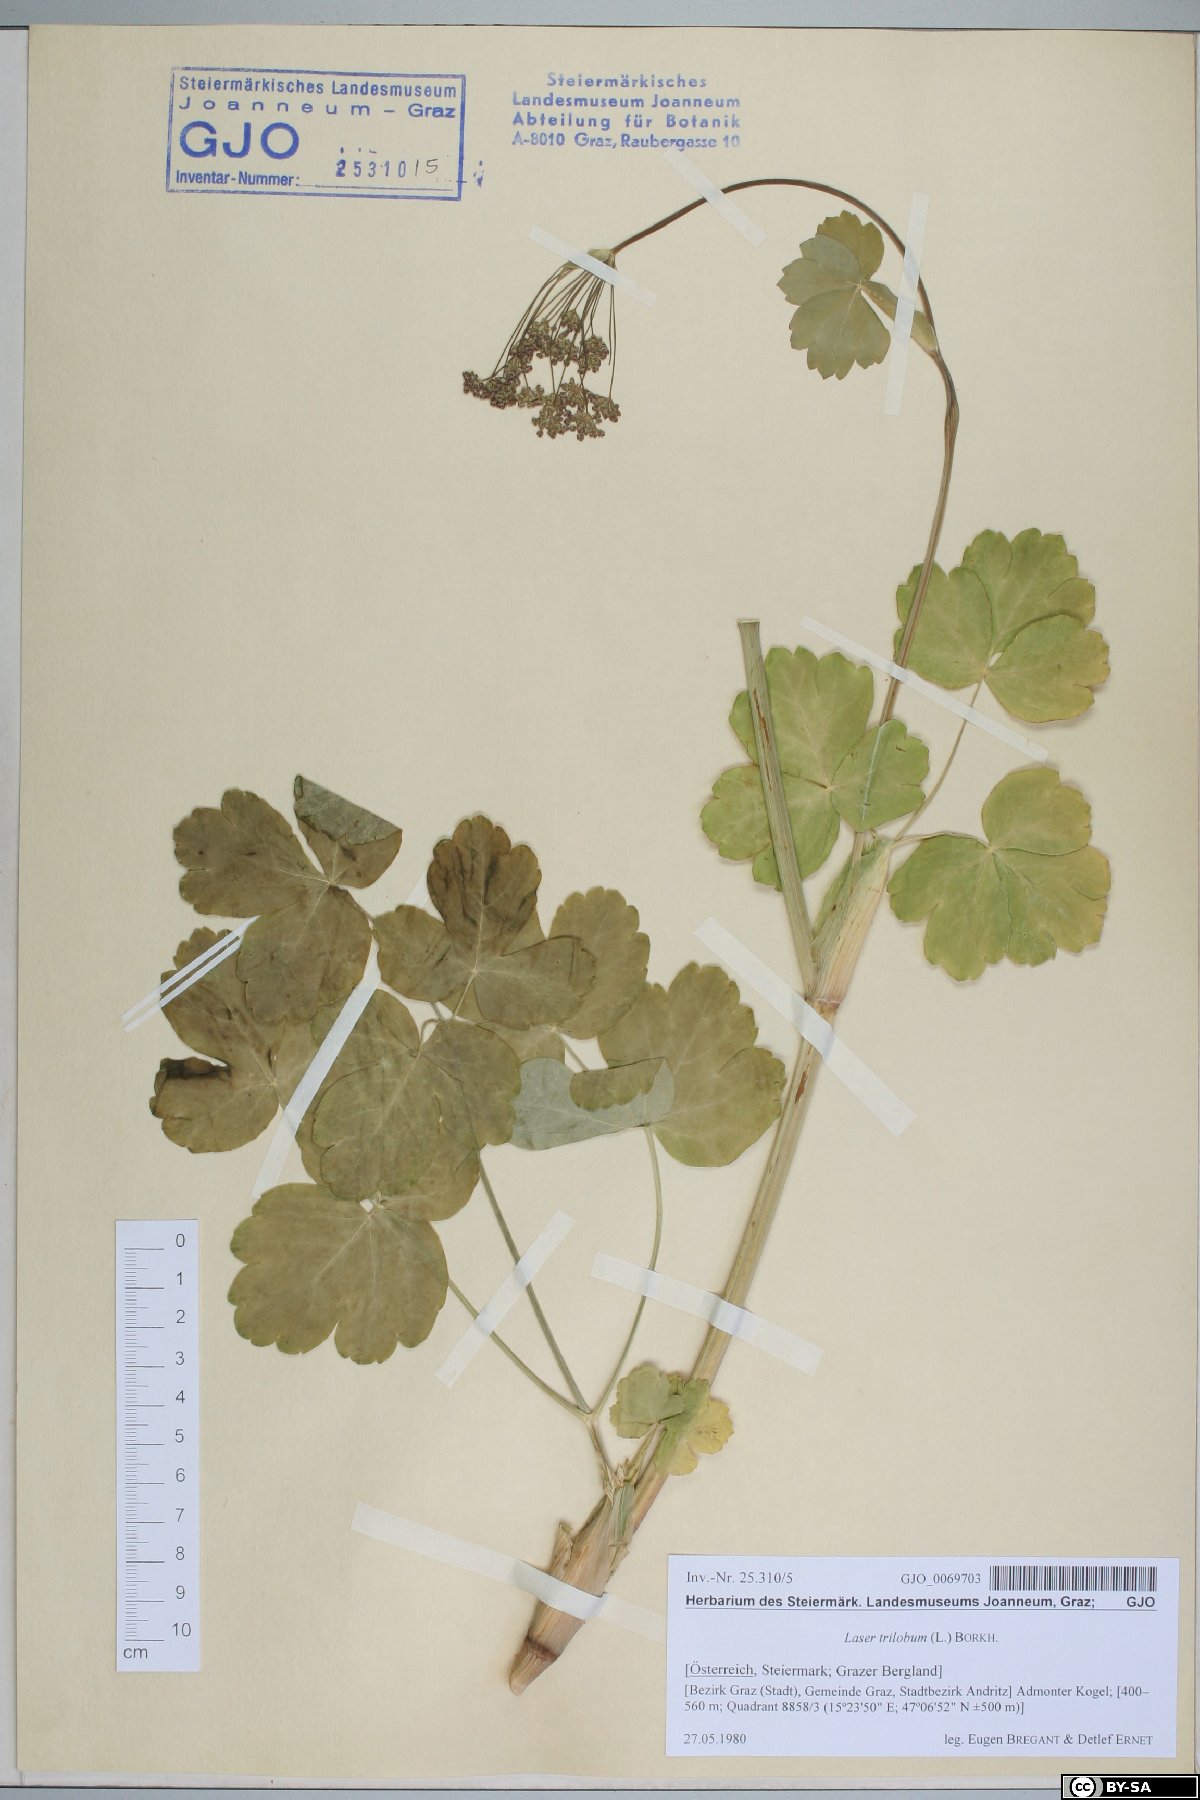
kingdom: Plantae
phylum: Tracheophyta
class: Magnoliopsida
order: Apiales
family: Apiaceae
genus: Laser
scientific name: Laser trilobum
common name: Laser
